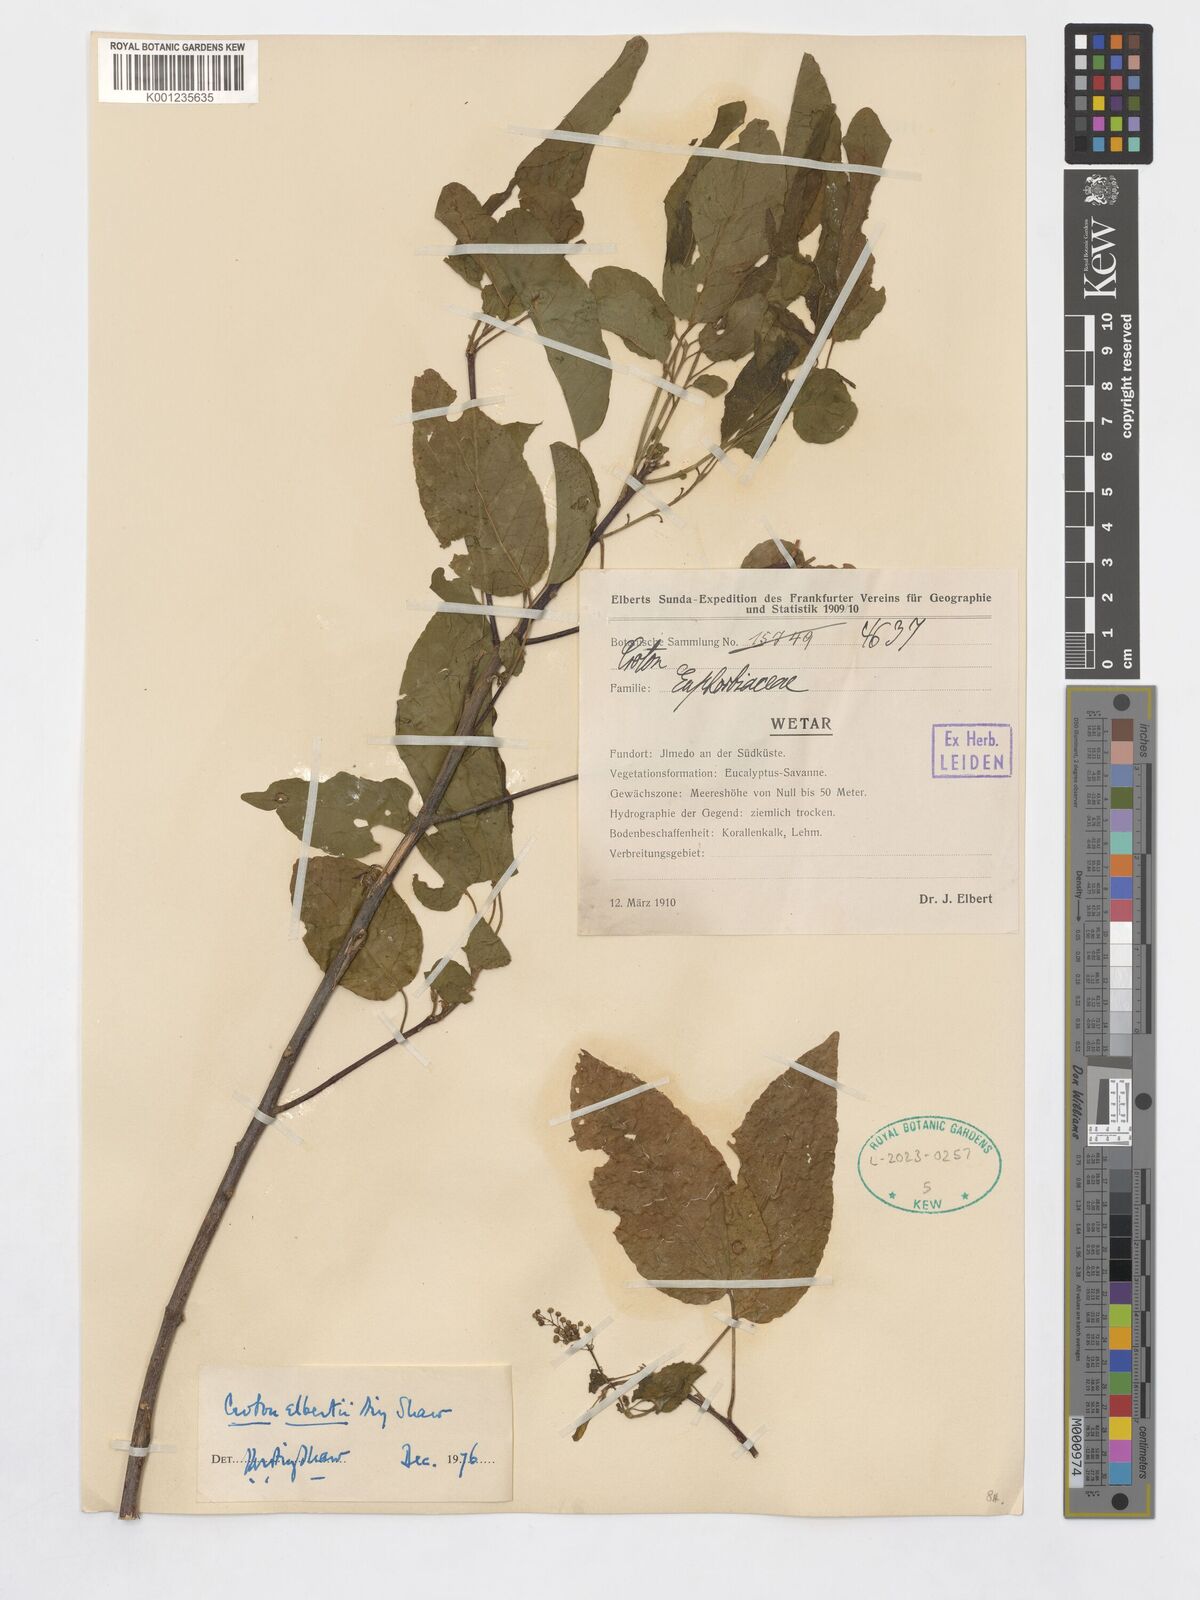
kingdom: Plantae
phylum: Tracheophyta
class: Magnoliopsida
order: Malpighiales
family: Euphorbiaceae
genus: Croton
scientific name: Croton elbertii
